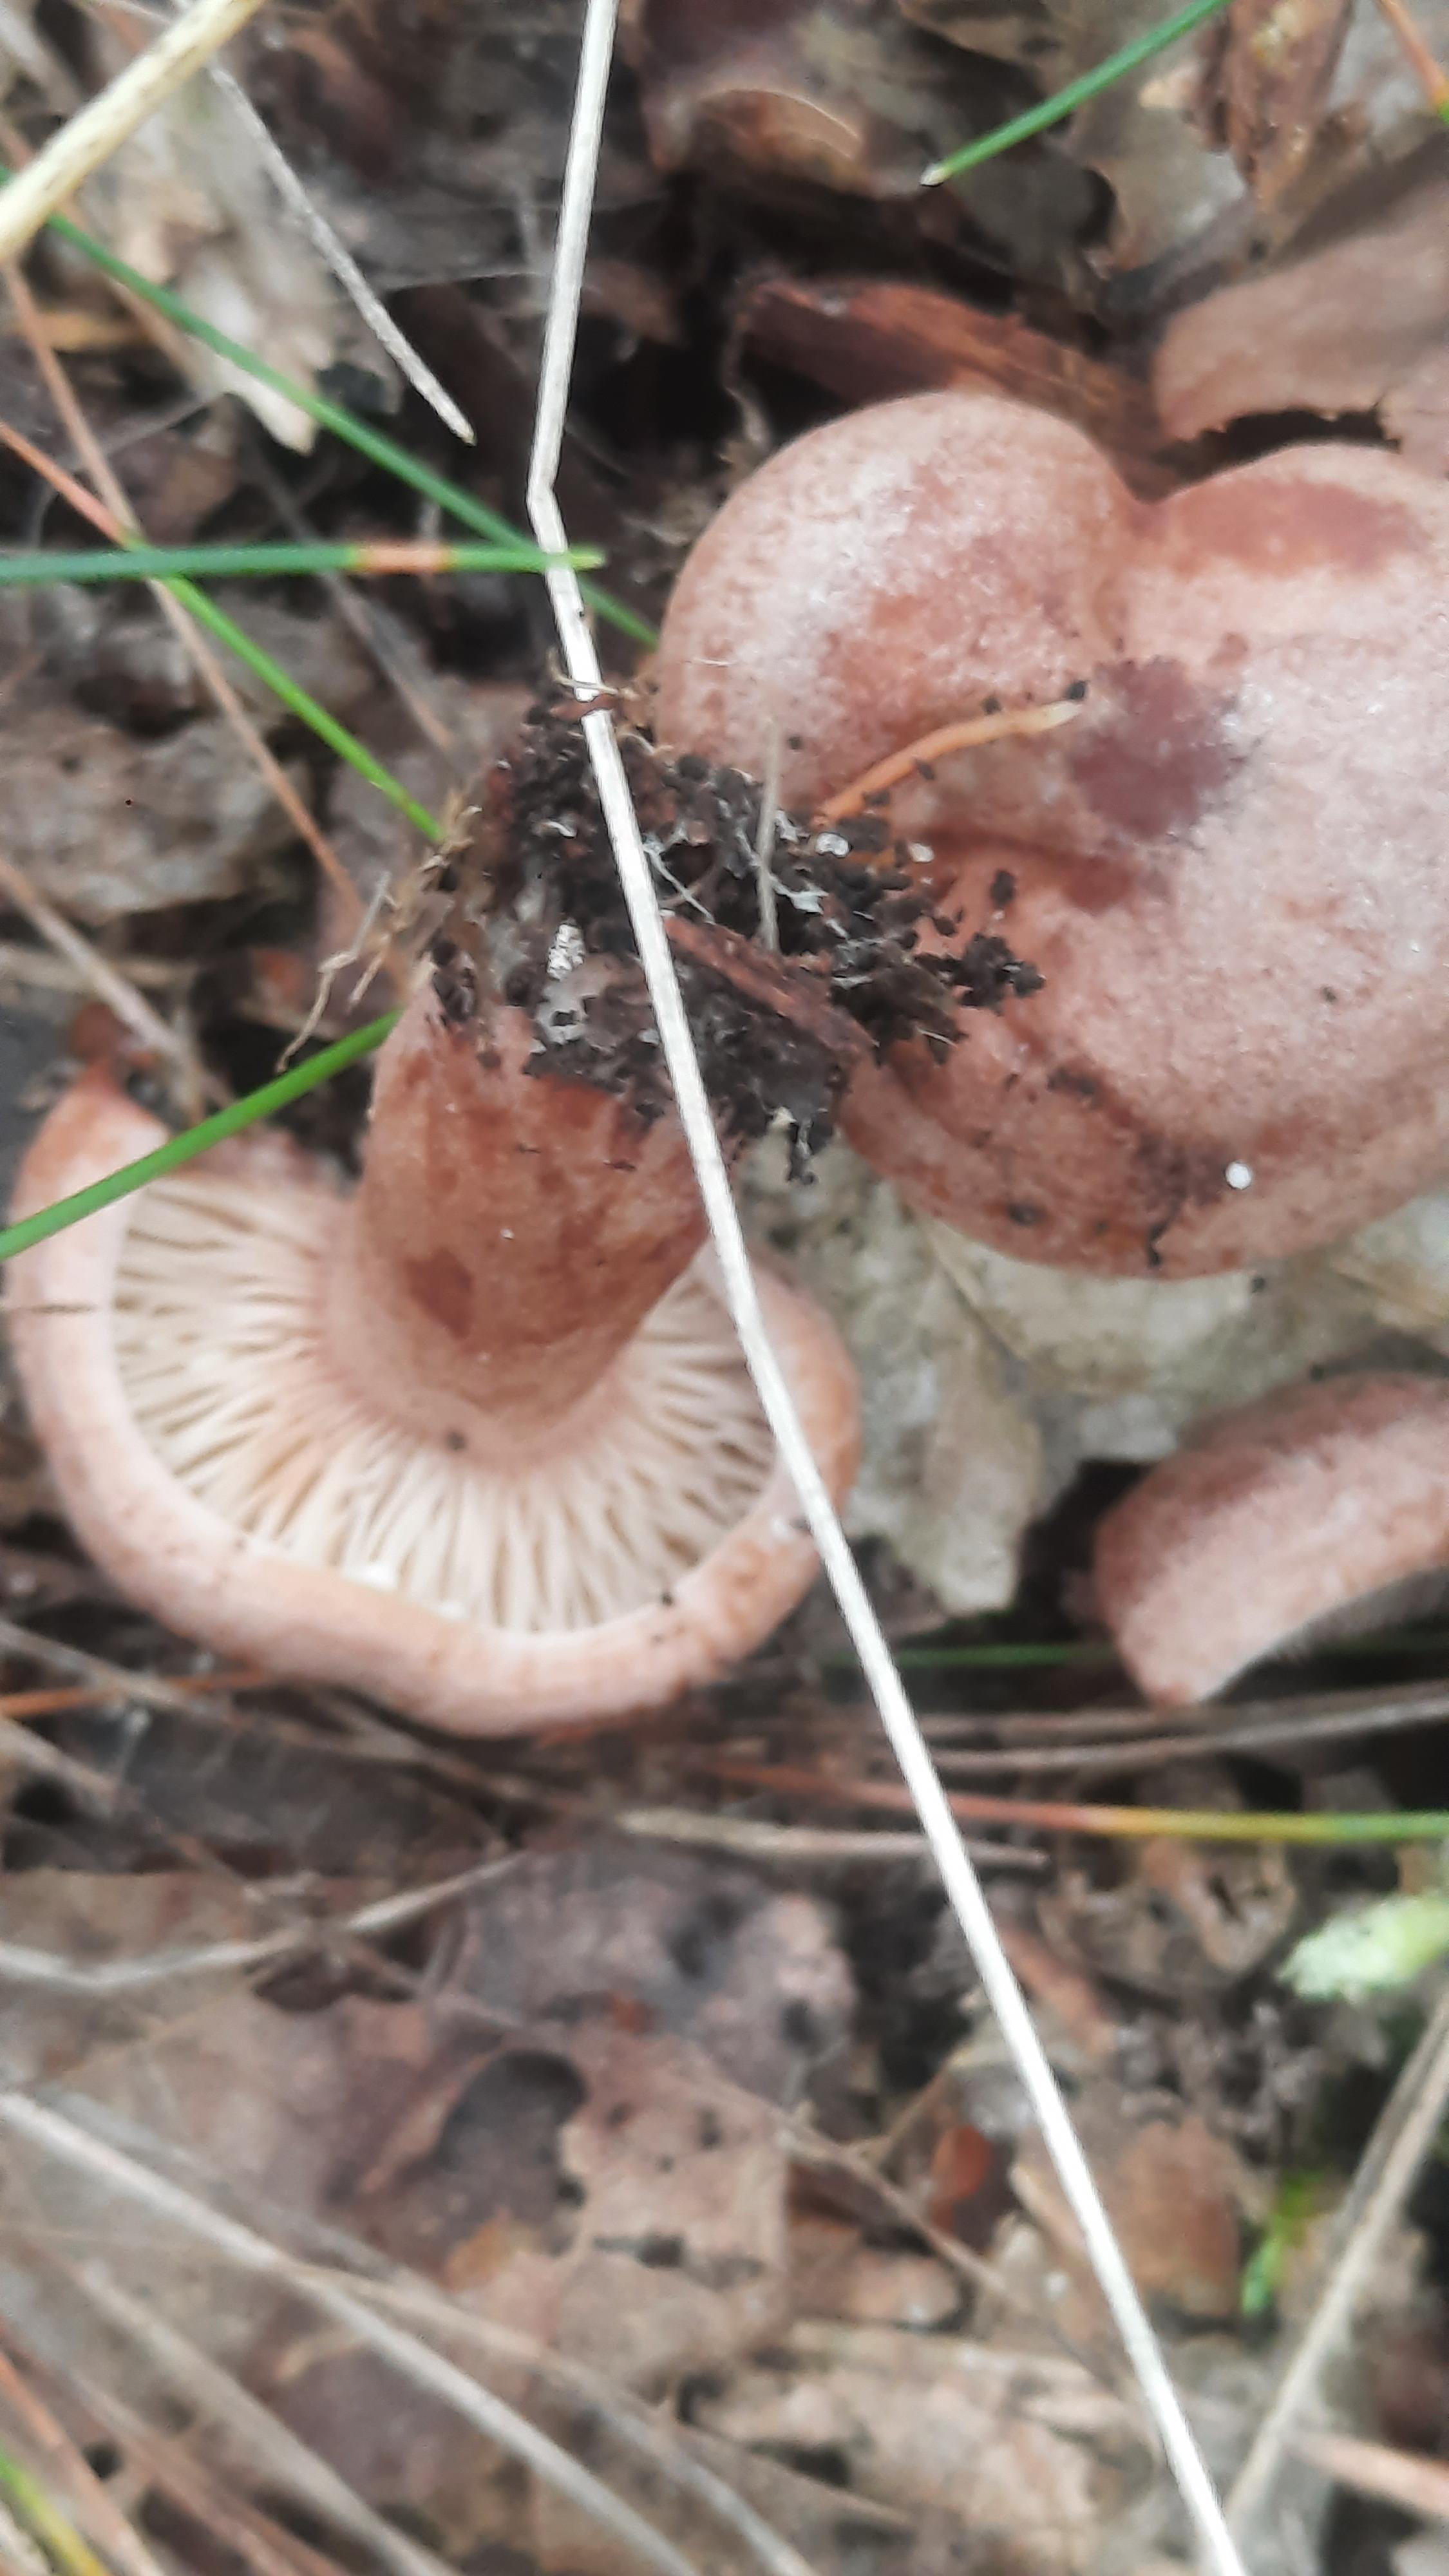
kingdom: Fungi
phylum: Basidiomycota
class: Agaricomycetes
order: Russulales
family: Russulaceae
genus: Lactarius
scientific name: Lactarius quietus
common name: ege-mælkehat
